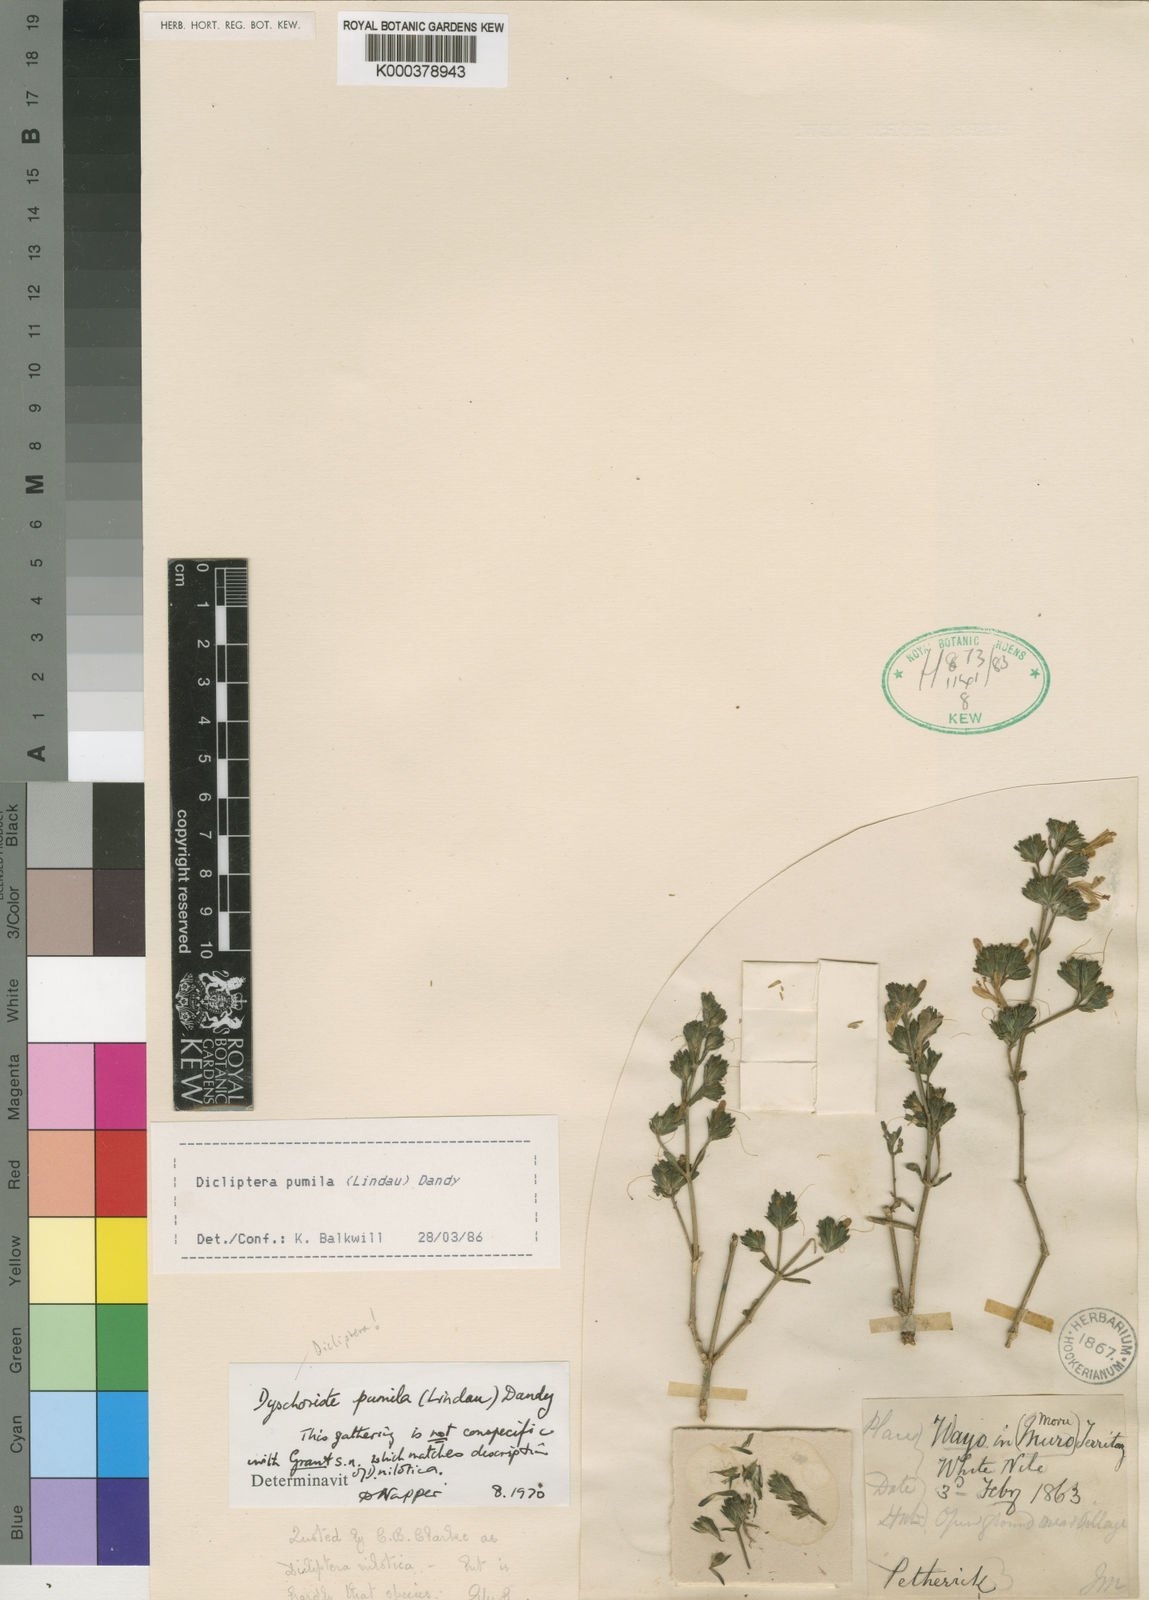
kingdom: Plantae
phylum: Tracheophyta
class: Magnoliopsida
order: Lamiales
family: Acanthaceae
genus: Dicliptera
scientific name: Dicliptera
